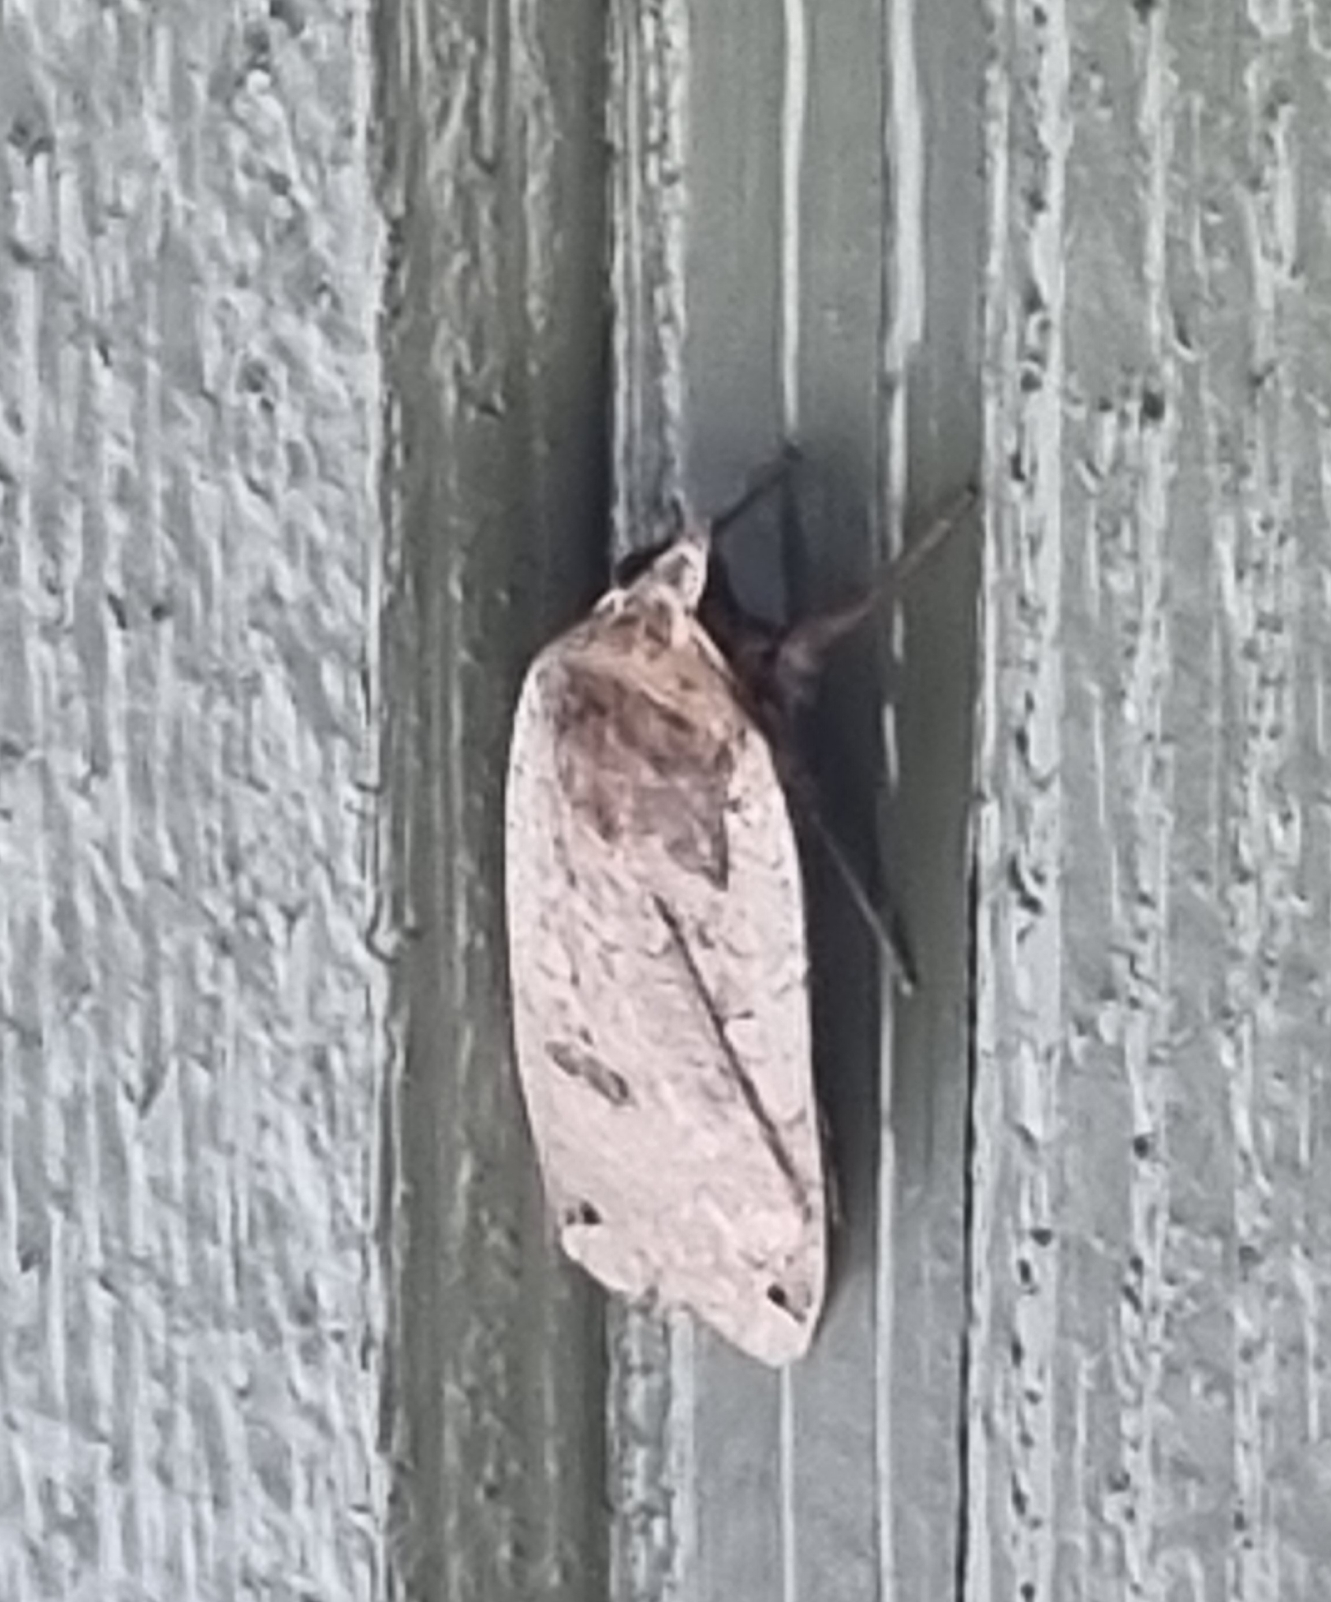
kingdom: Animalia
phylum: Arthropoda
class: Insecta
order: Lepidoptera
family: Noctuidae
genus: Noctua
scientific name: Noctua pronuba
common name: Stor smutugle
